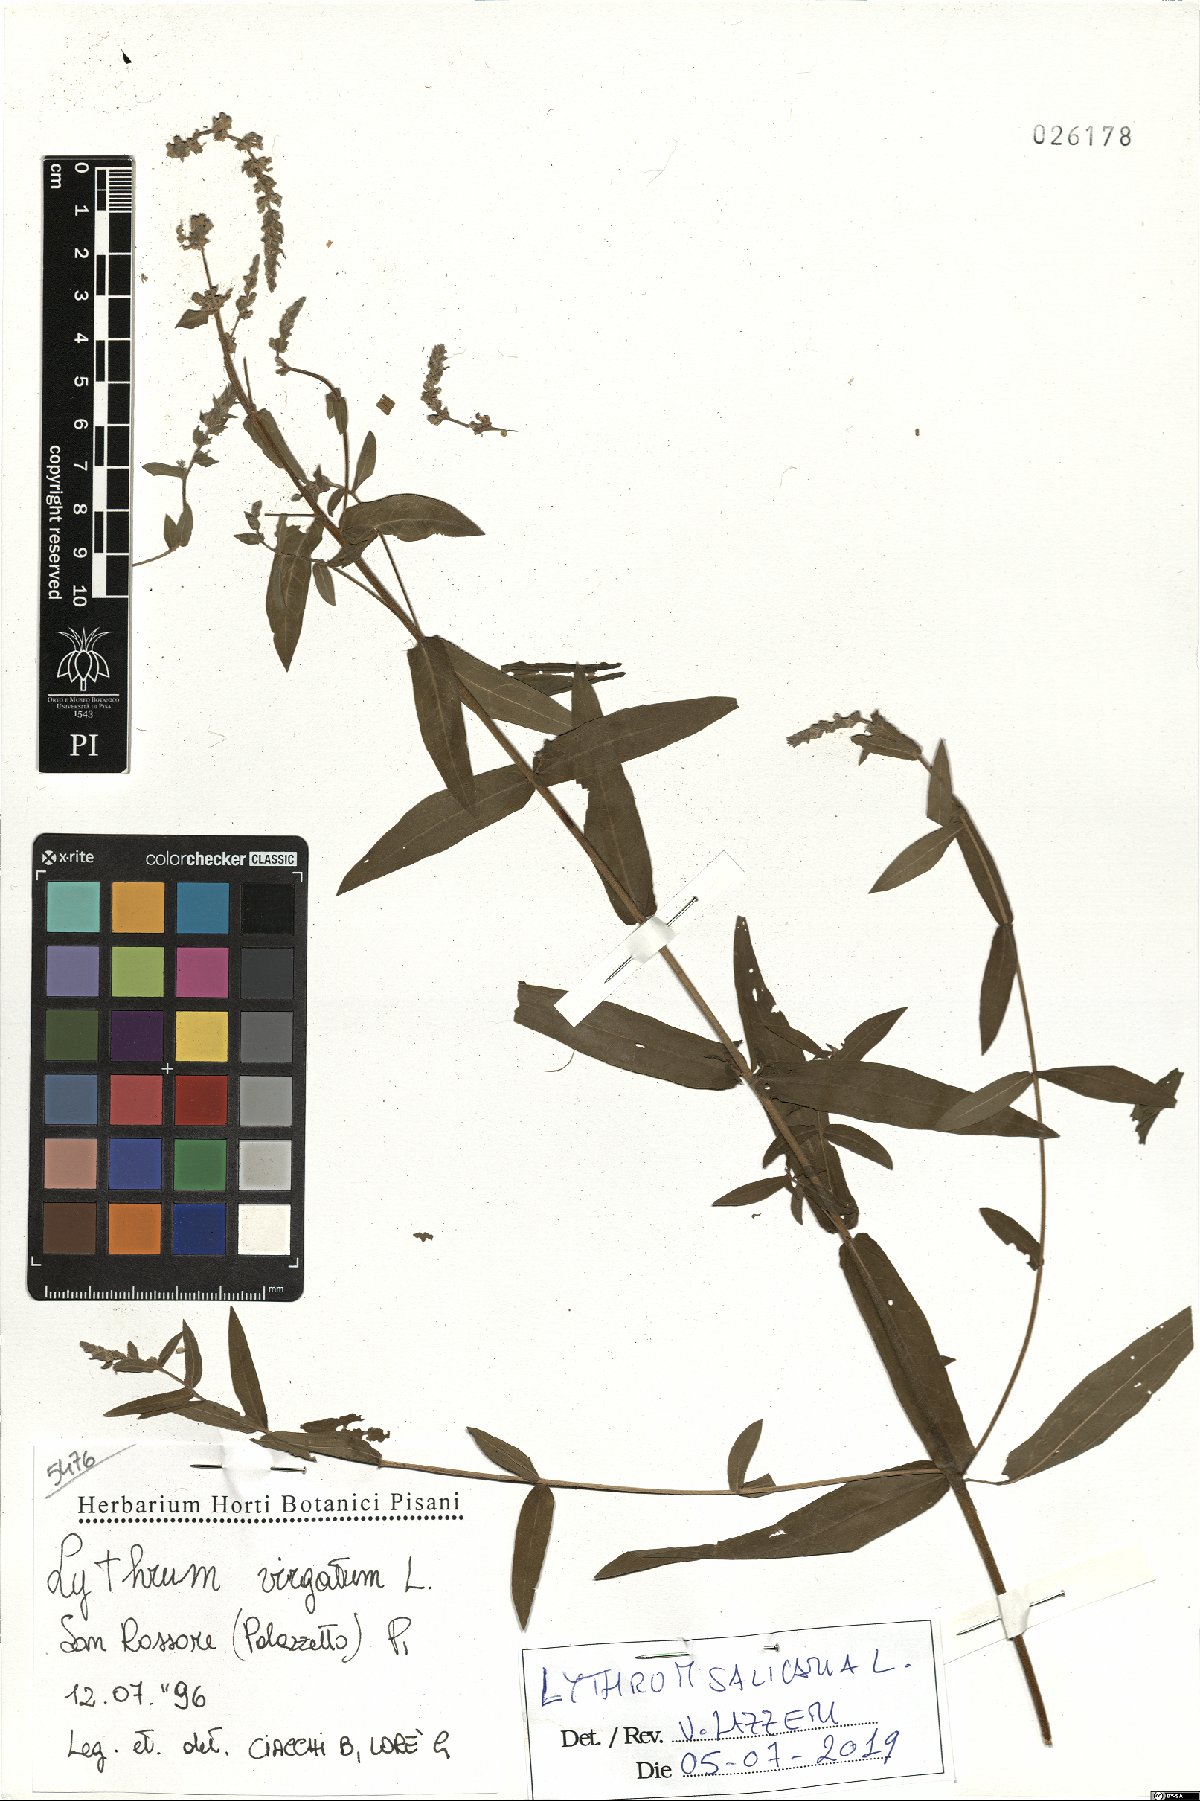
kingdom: Plantae
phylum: Tracheophyta
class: Magnoliopsida
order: Myrtales
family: Lythraceae
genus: Lythrum
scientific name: Lythrum salicaria
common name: Purple loosestrife
